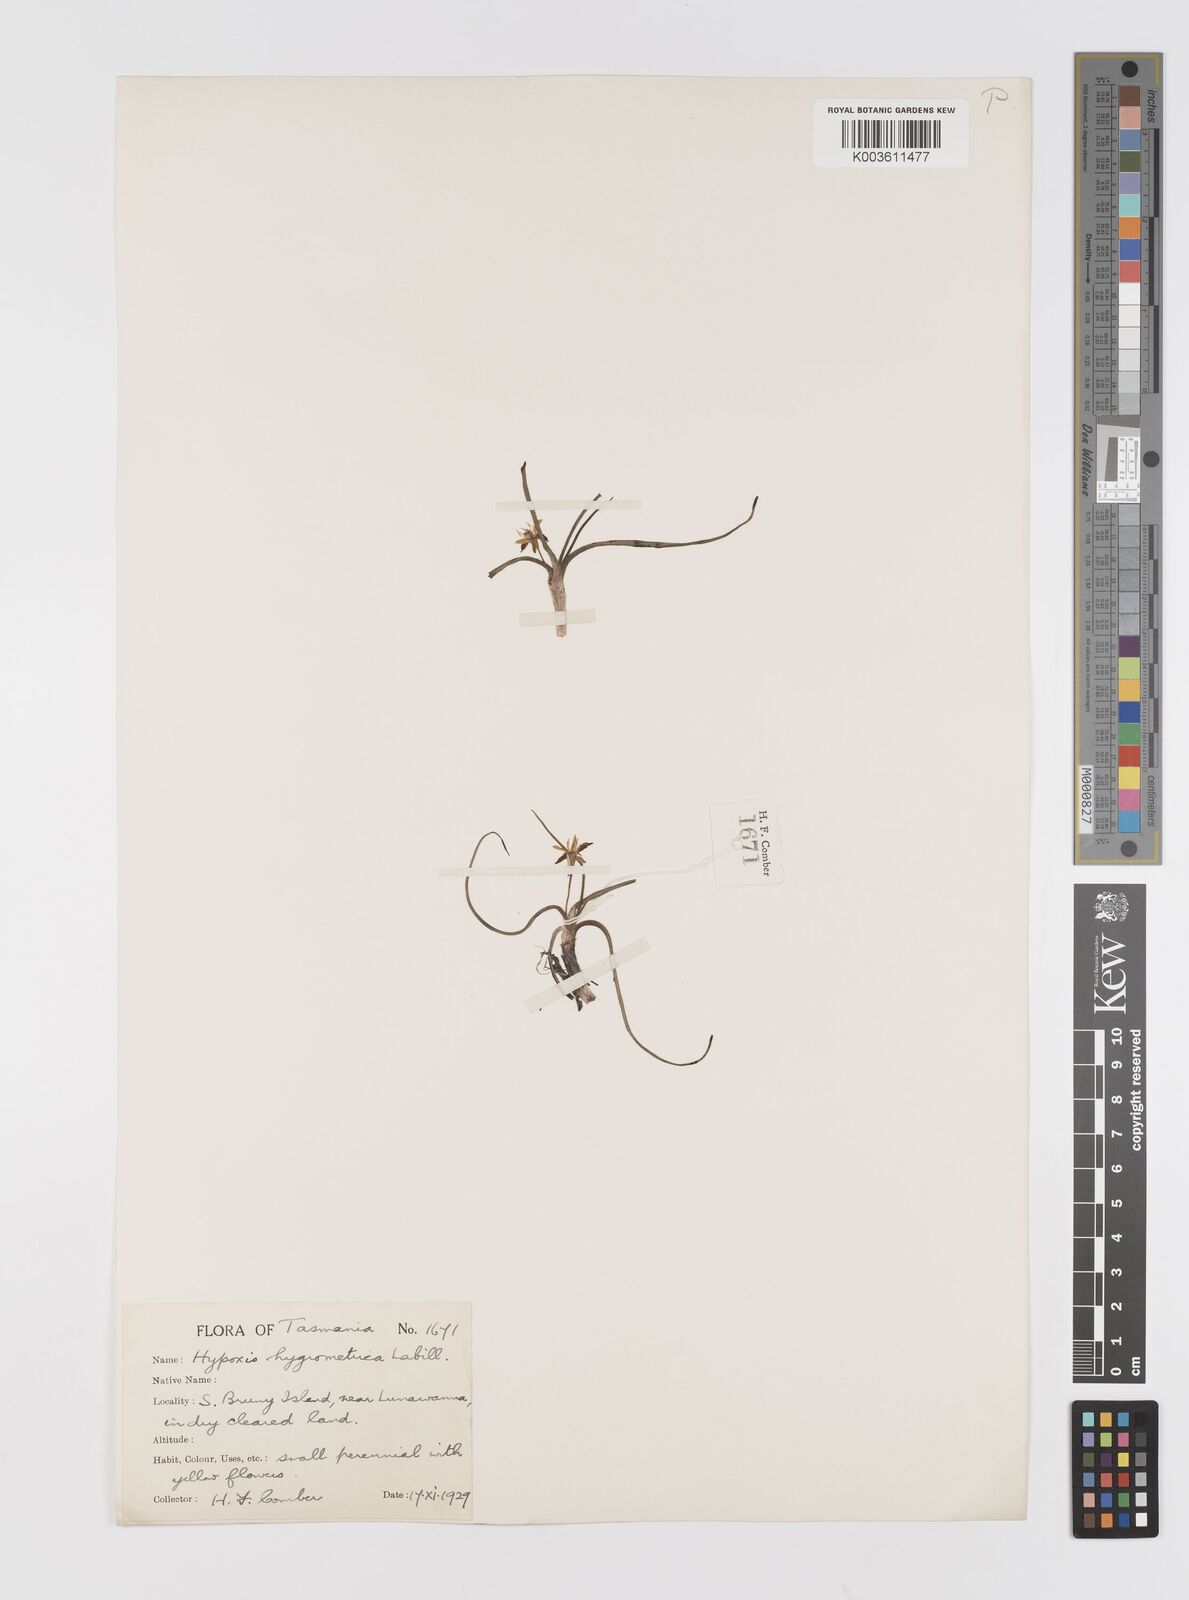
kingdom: Plantae
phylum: Tracheophyta
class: Liliopsida
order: Asparagales
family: Hypoxidaceae
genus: Hypoxis
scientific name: Hypoxis hygrometrica
